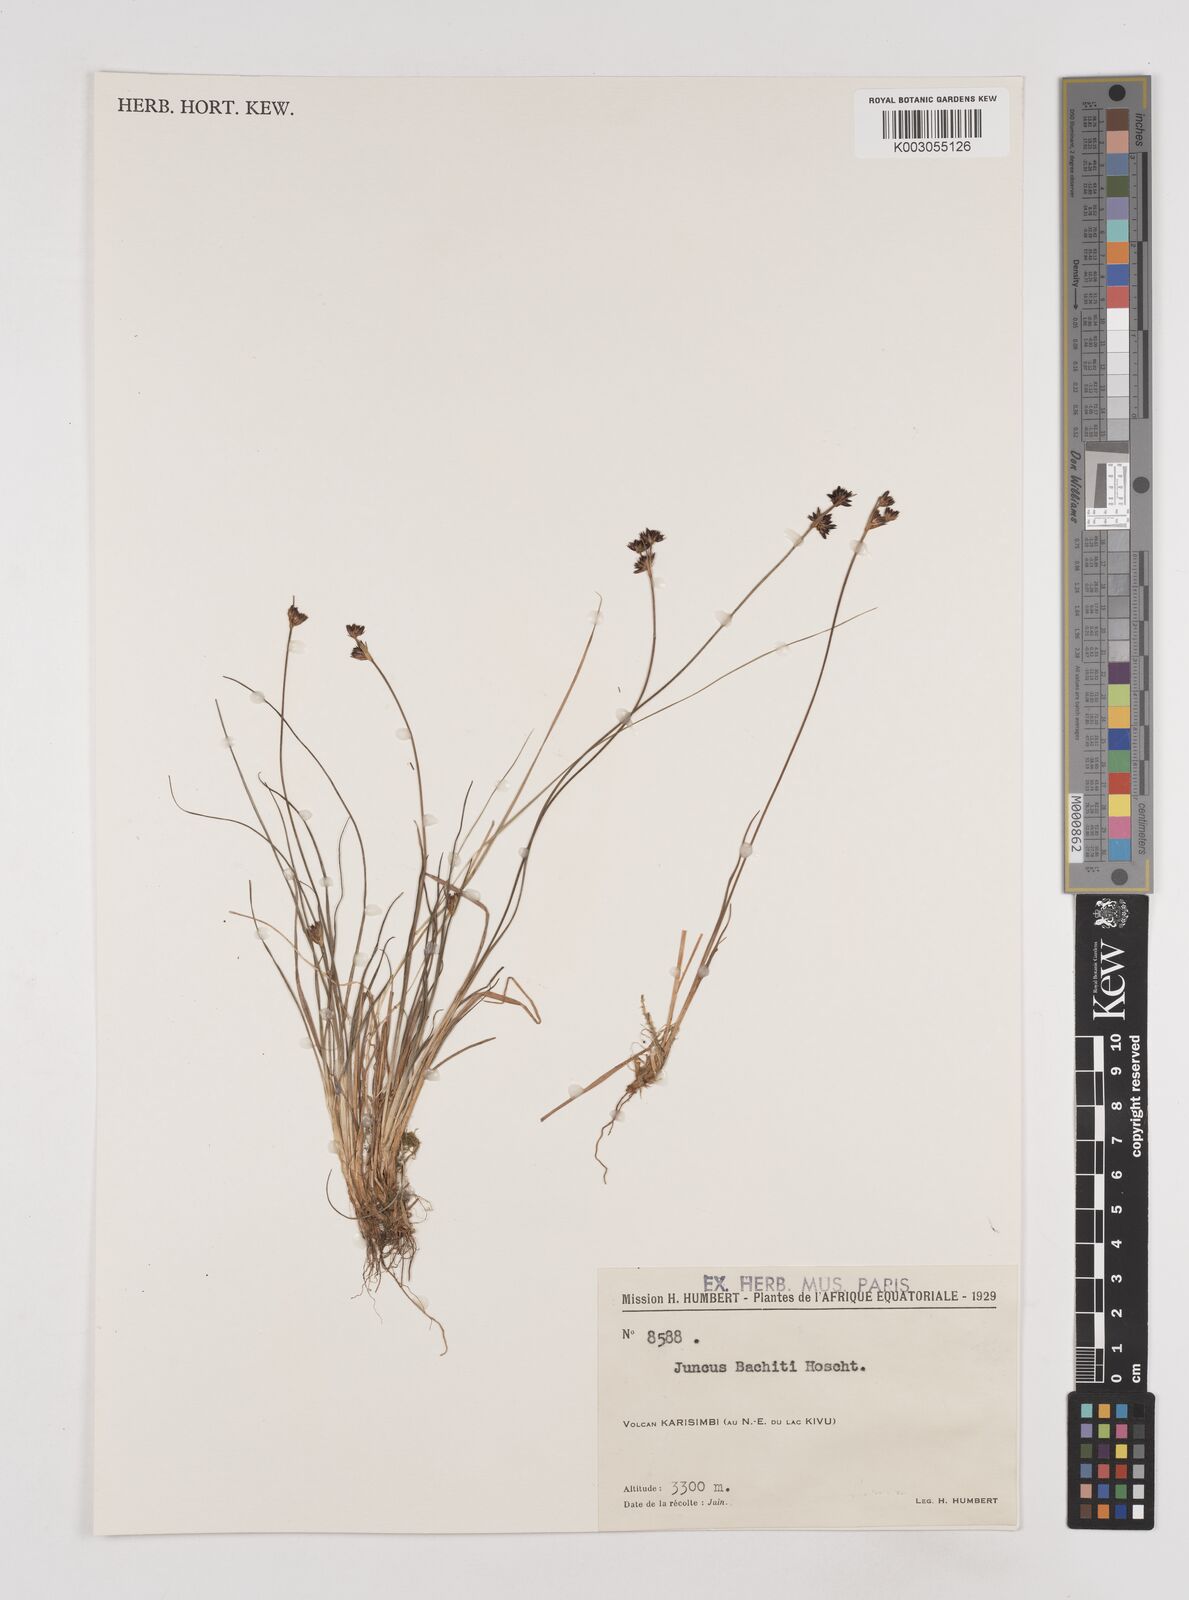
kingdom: Plantae
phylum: Tracheophyta
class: Liliopsida
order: Poales
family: Juncaceae
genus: Juncus
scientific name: Juncus dregeanus
